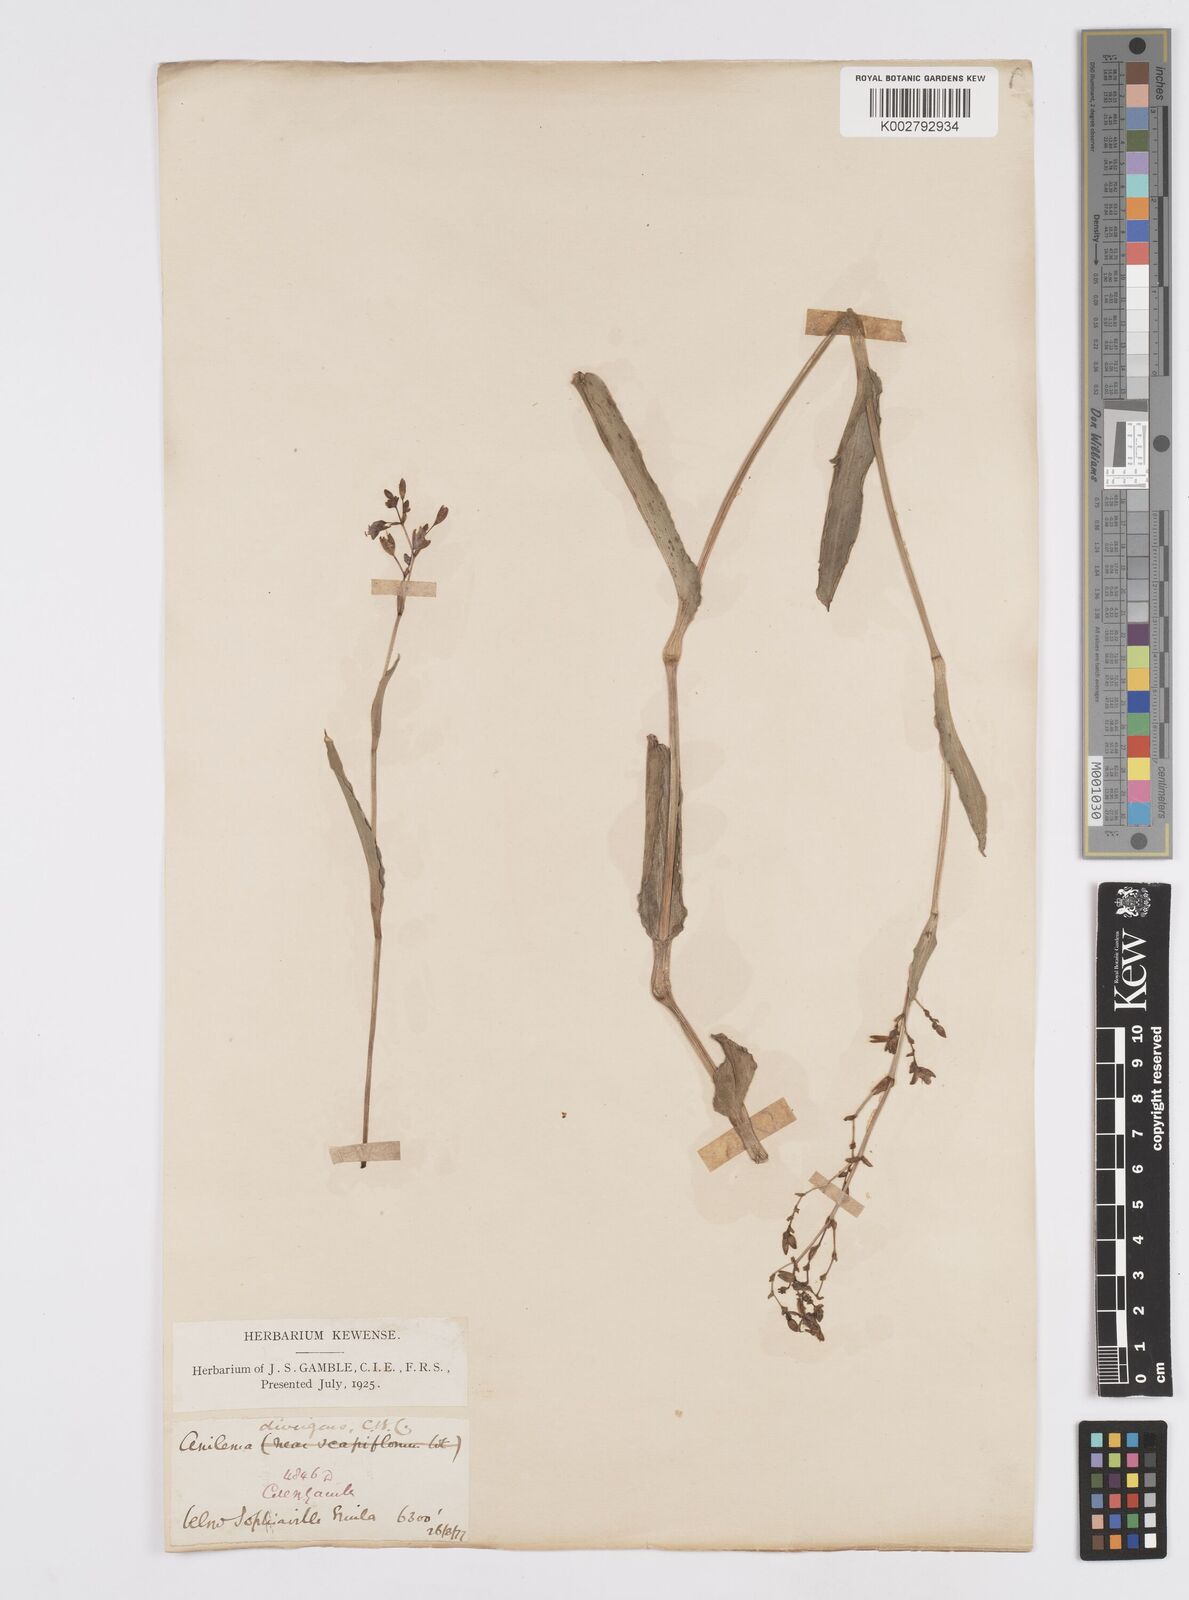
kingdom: Plantae
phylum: Tracheophyta
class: Liliopsida
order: Commelinales
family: Commelinaceae
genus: Murdannia
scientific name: Murdannia divergens
